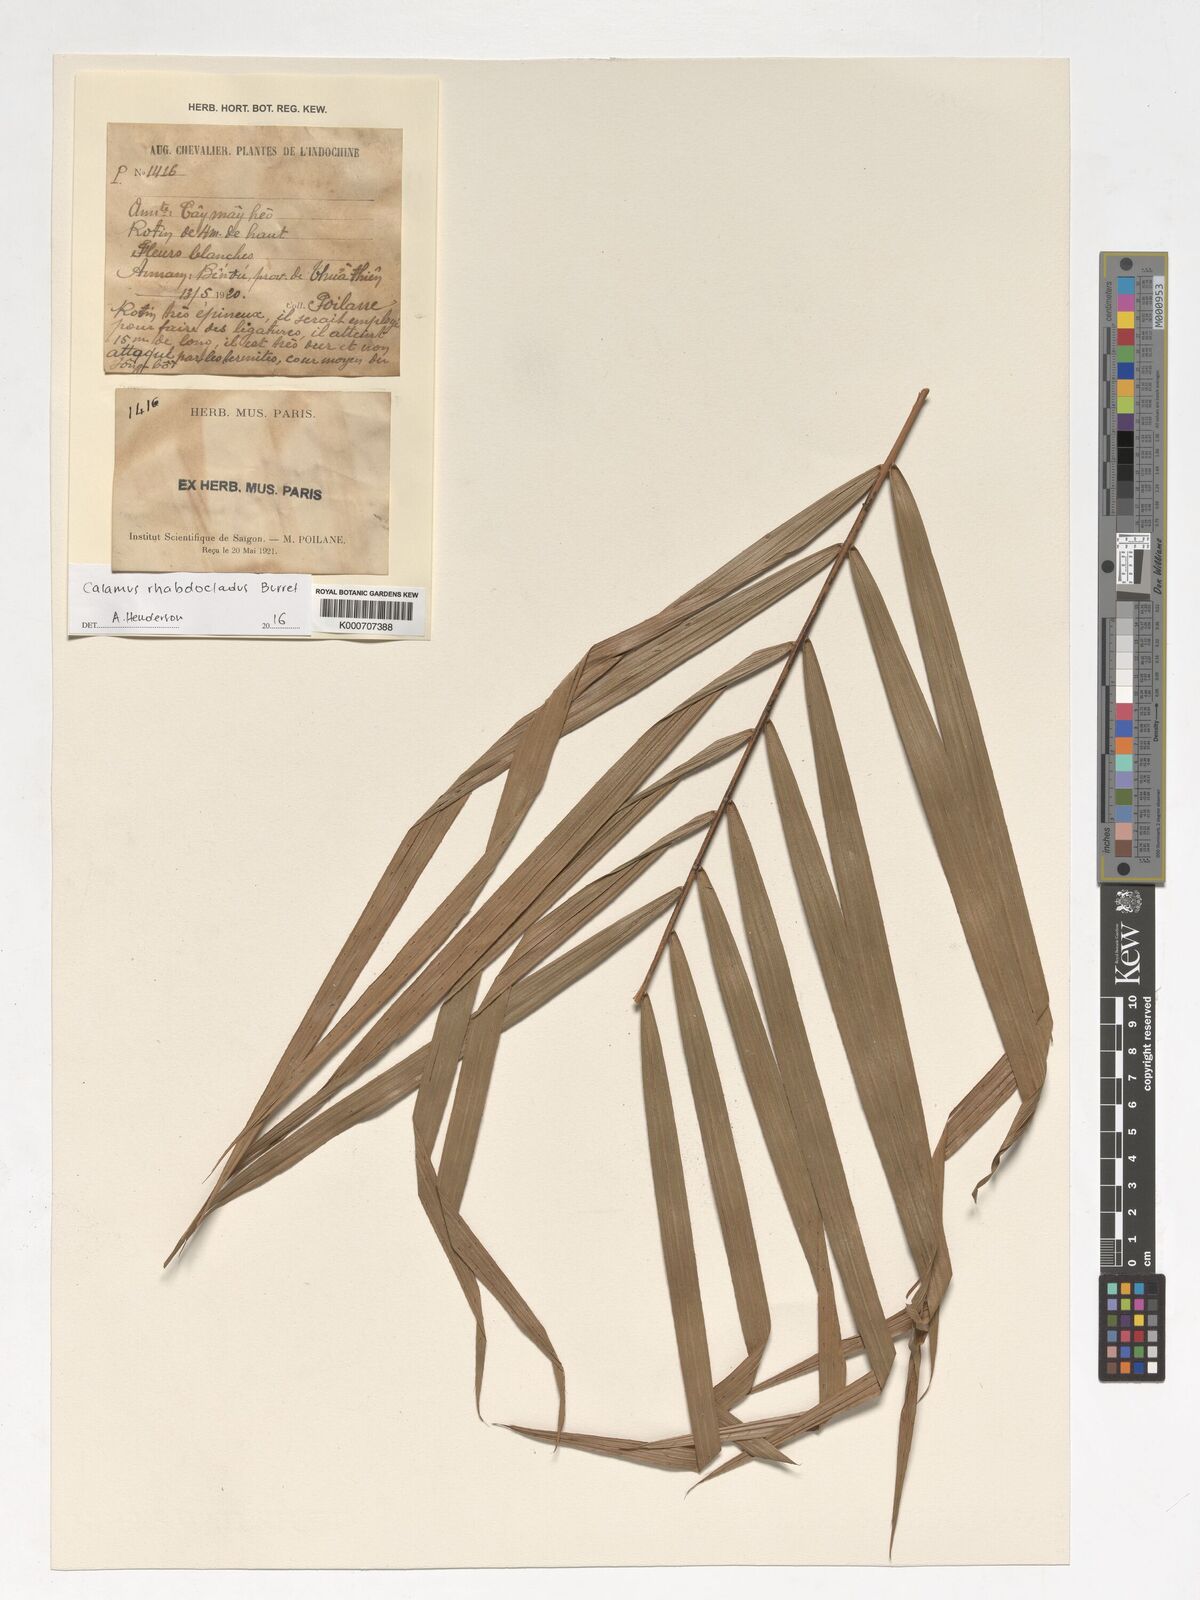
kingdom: Plantae
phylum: Tracheophyta
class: Liliopsida
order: Arecales
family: Arecaceae
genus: Calamus
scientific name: Calamus rhabdocladus
